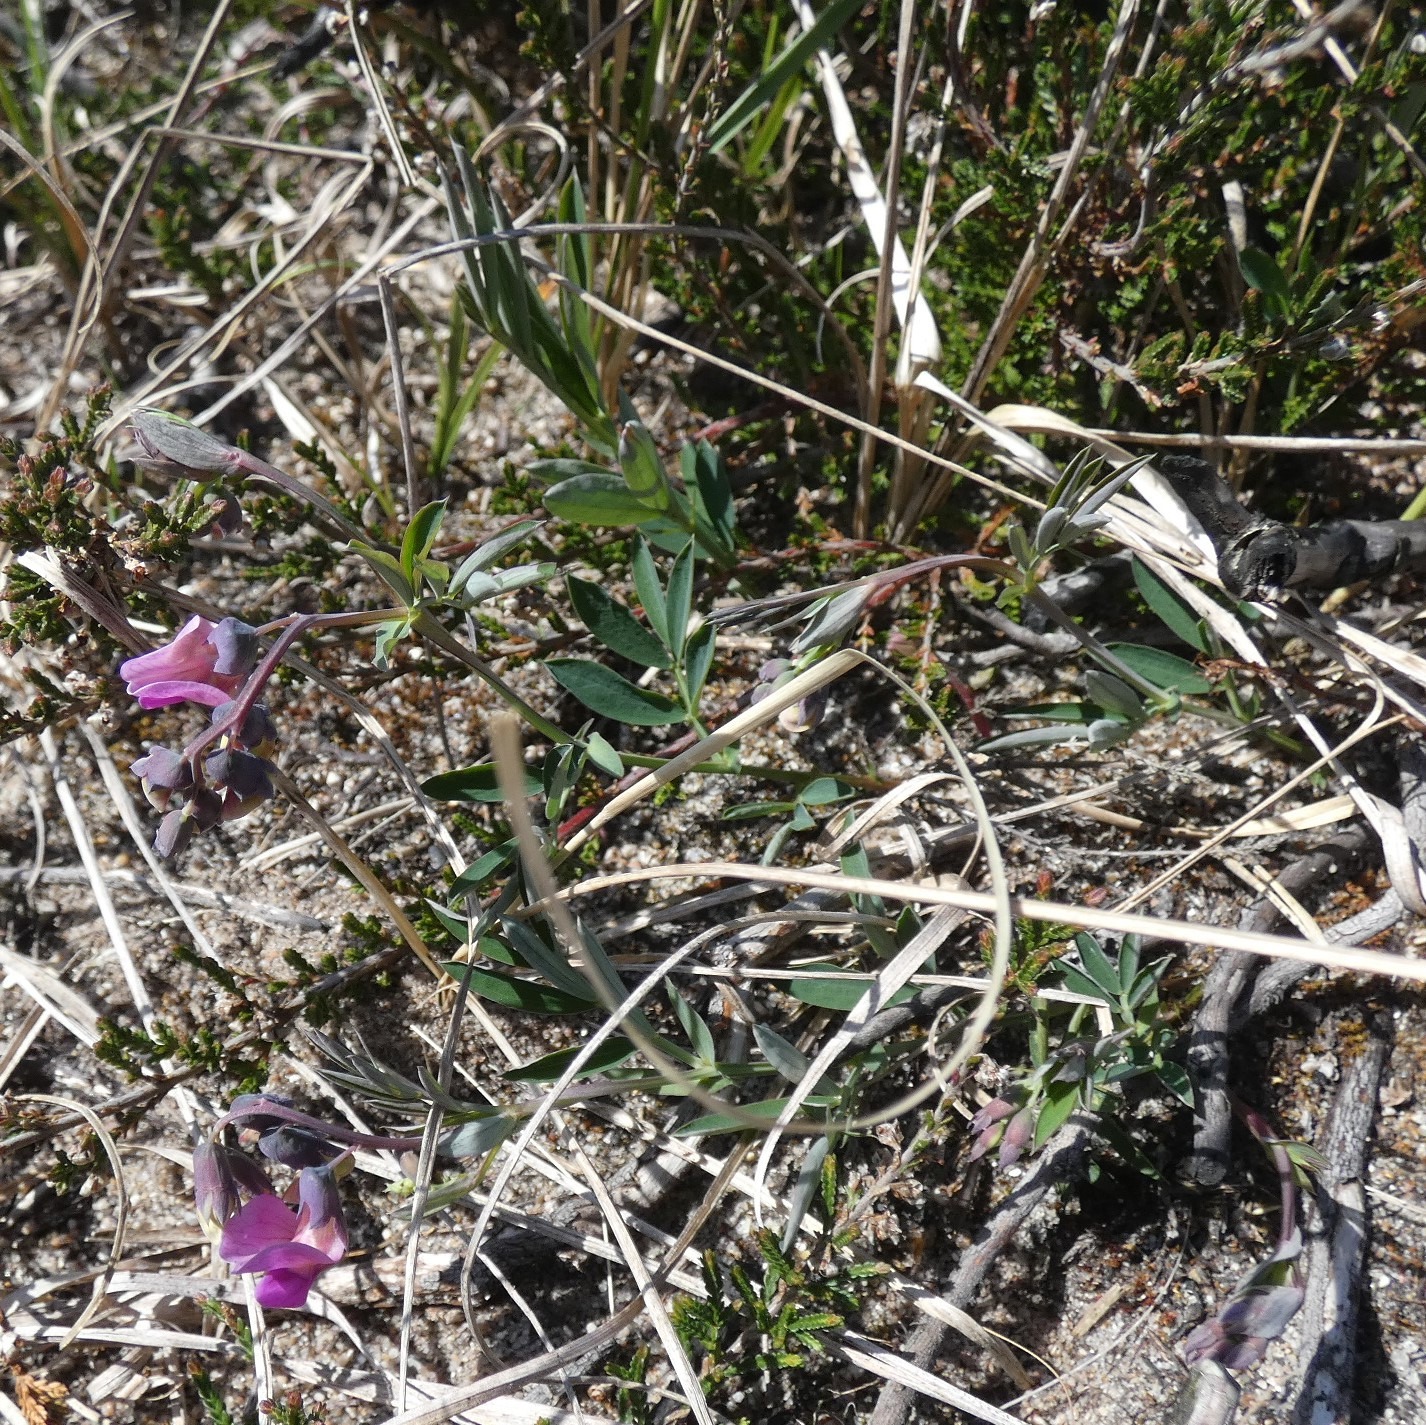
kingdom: Plantae
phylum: Tracheophyta
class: Magnoliopsida
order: Fabales
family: Fabaceae
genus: Lathyrus
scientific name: Lathyrus linifolius
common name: Krat-fladbælg
